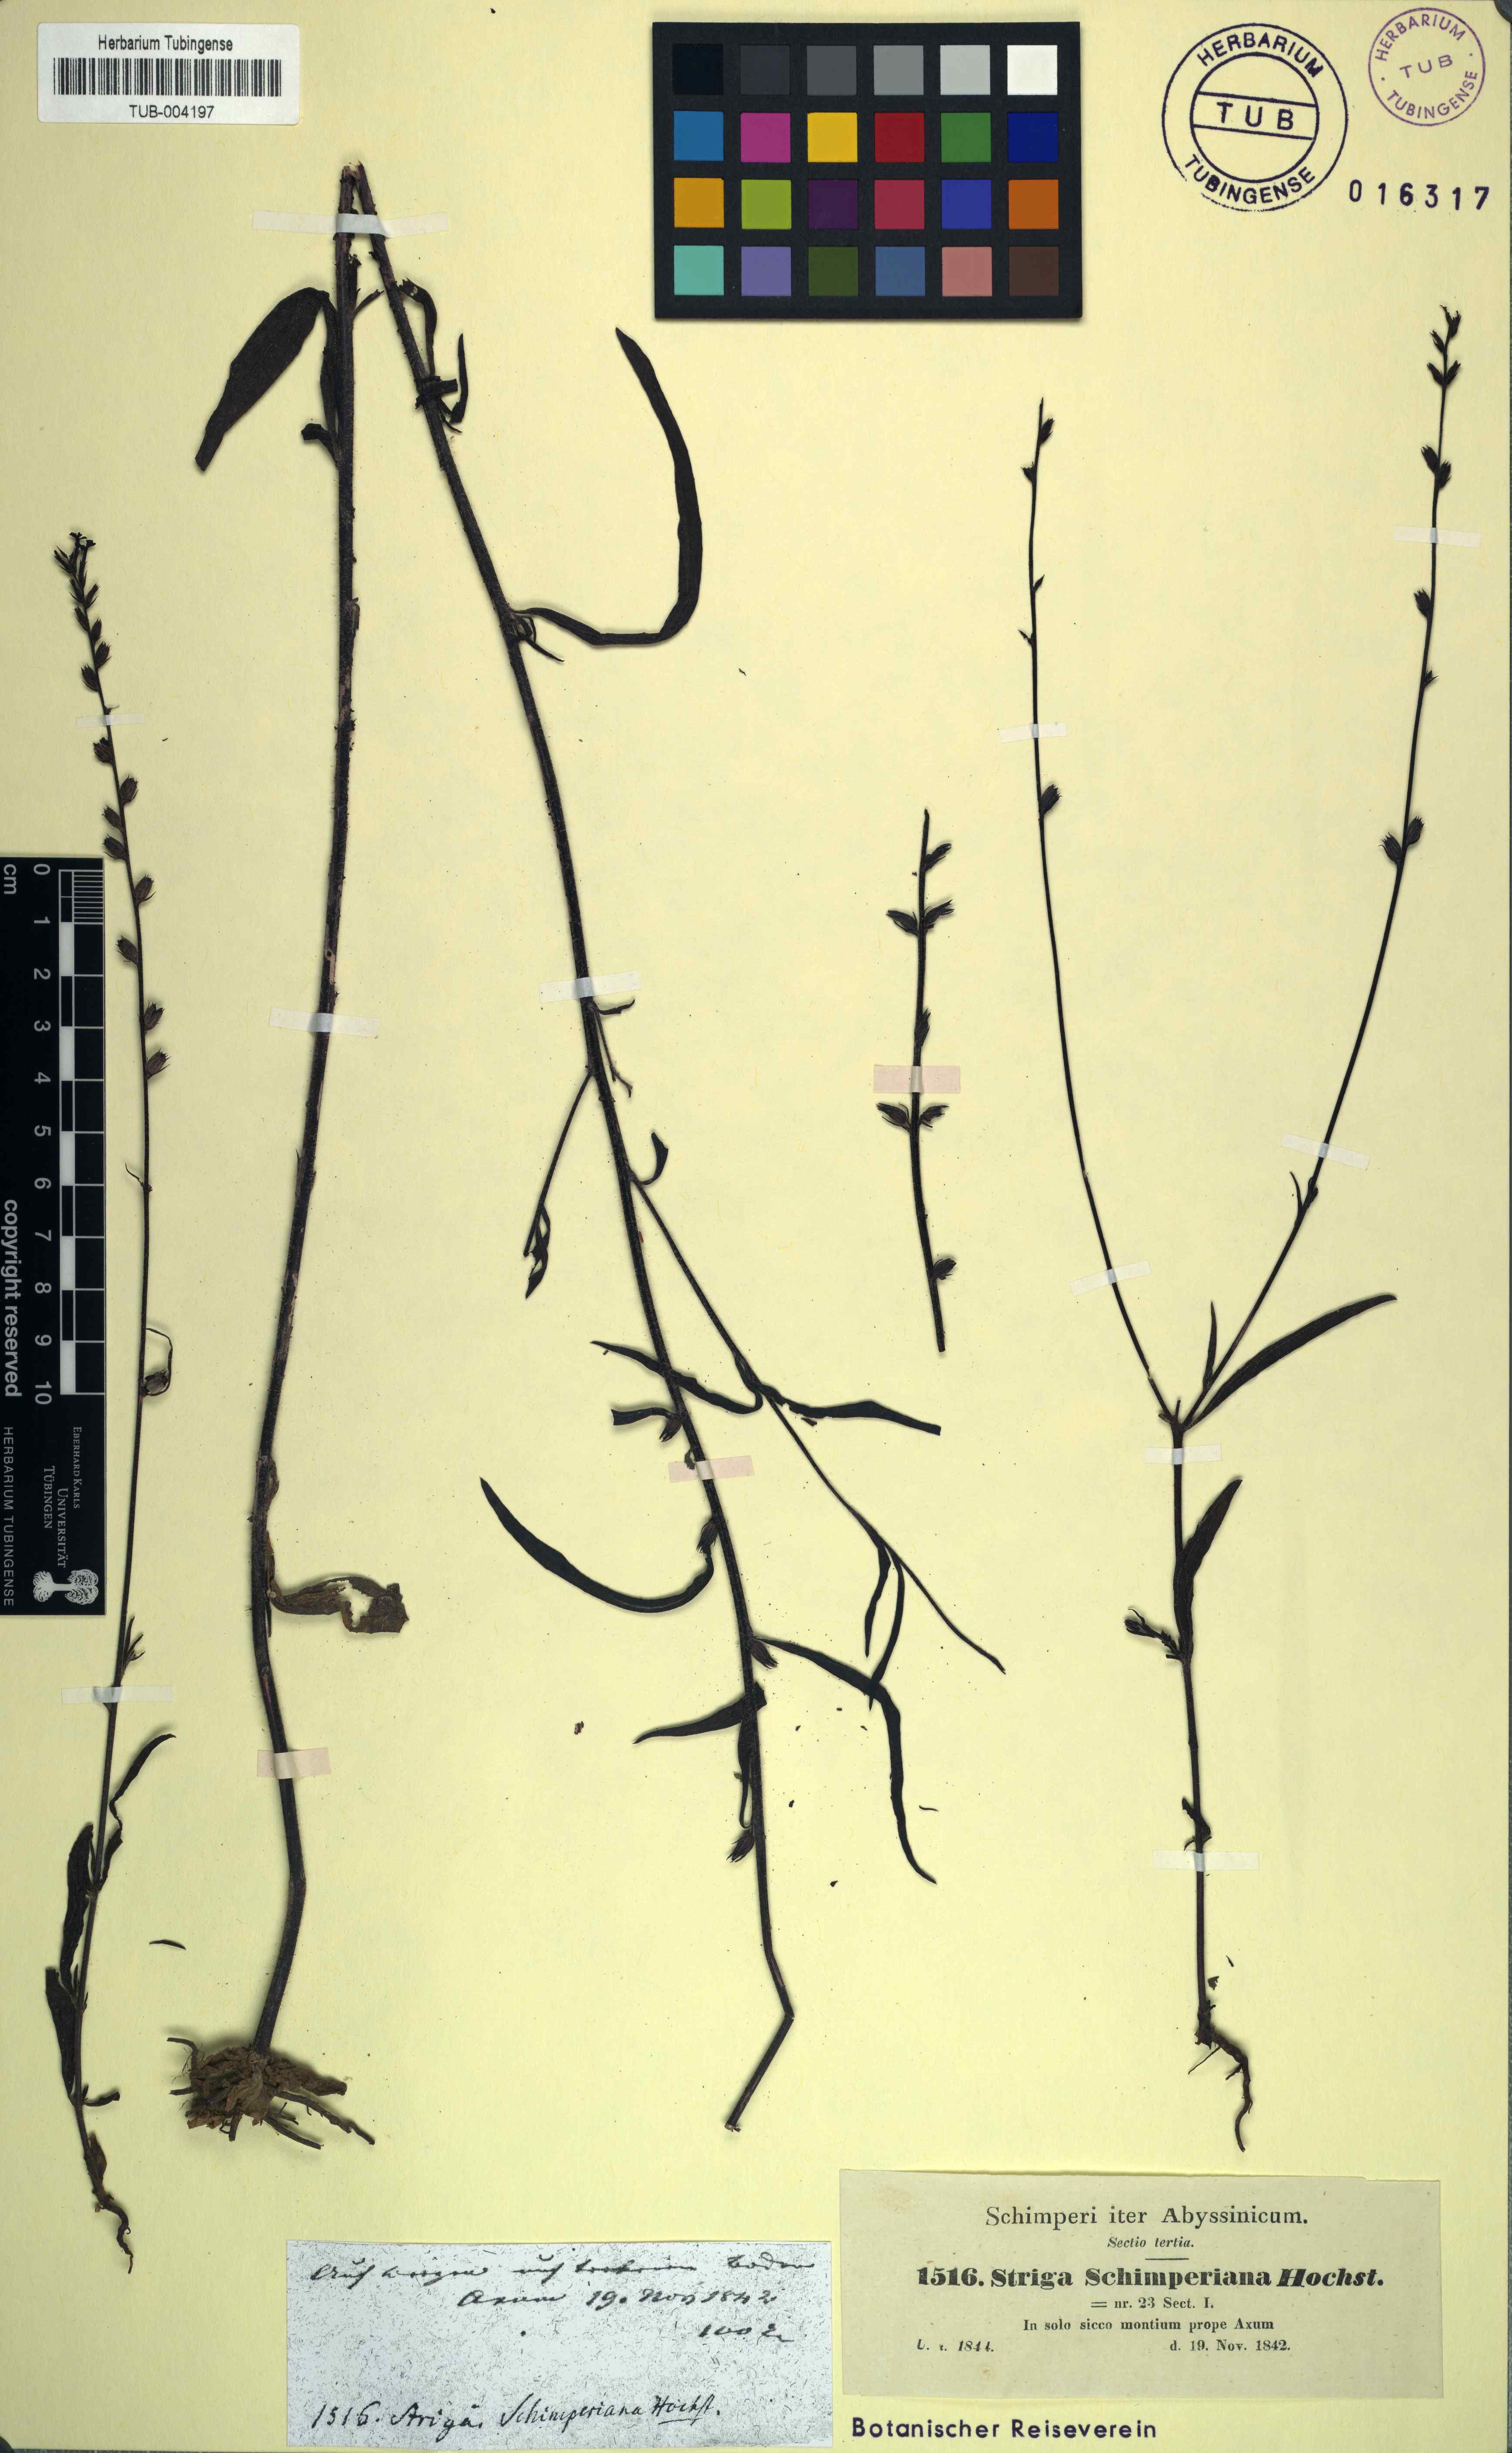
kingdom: Plantae
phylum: Tracheophyta
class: Magnoliopsida
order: Lamiales
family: Orobanchaceae
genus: Buchnera
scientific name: Buchnera hispida
